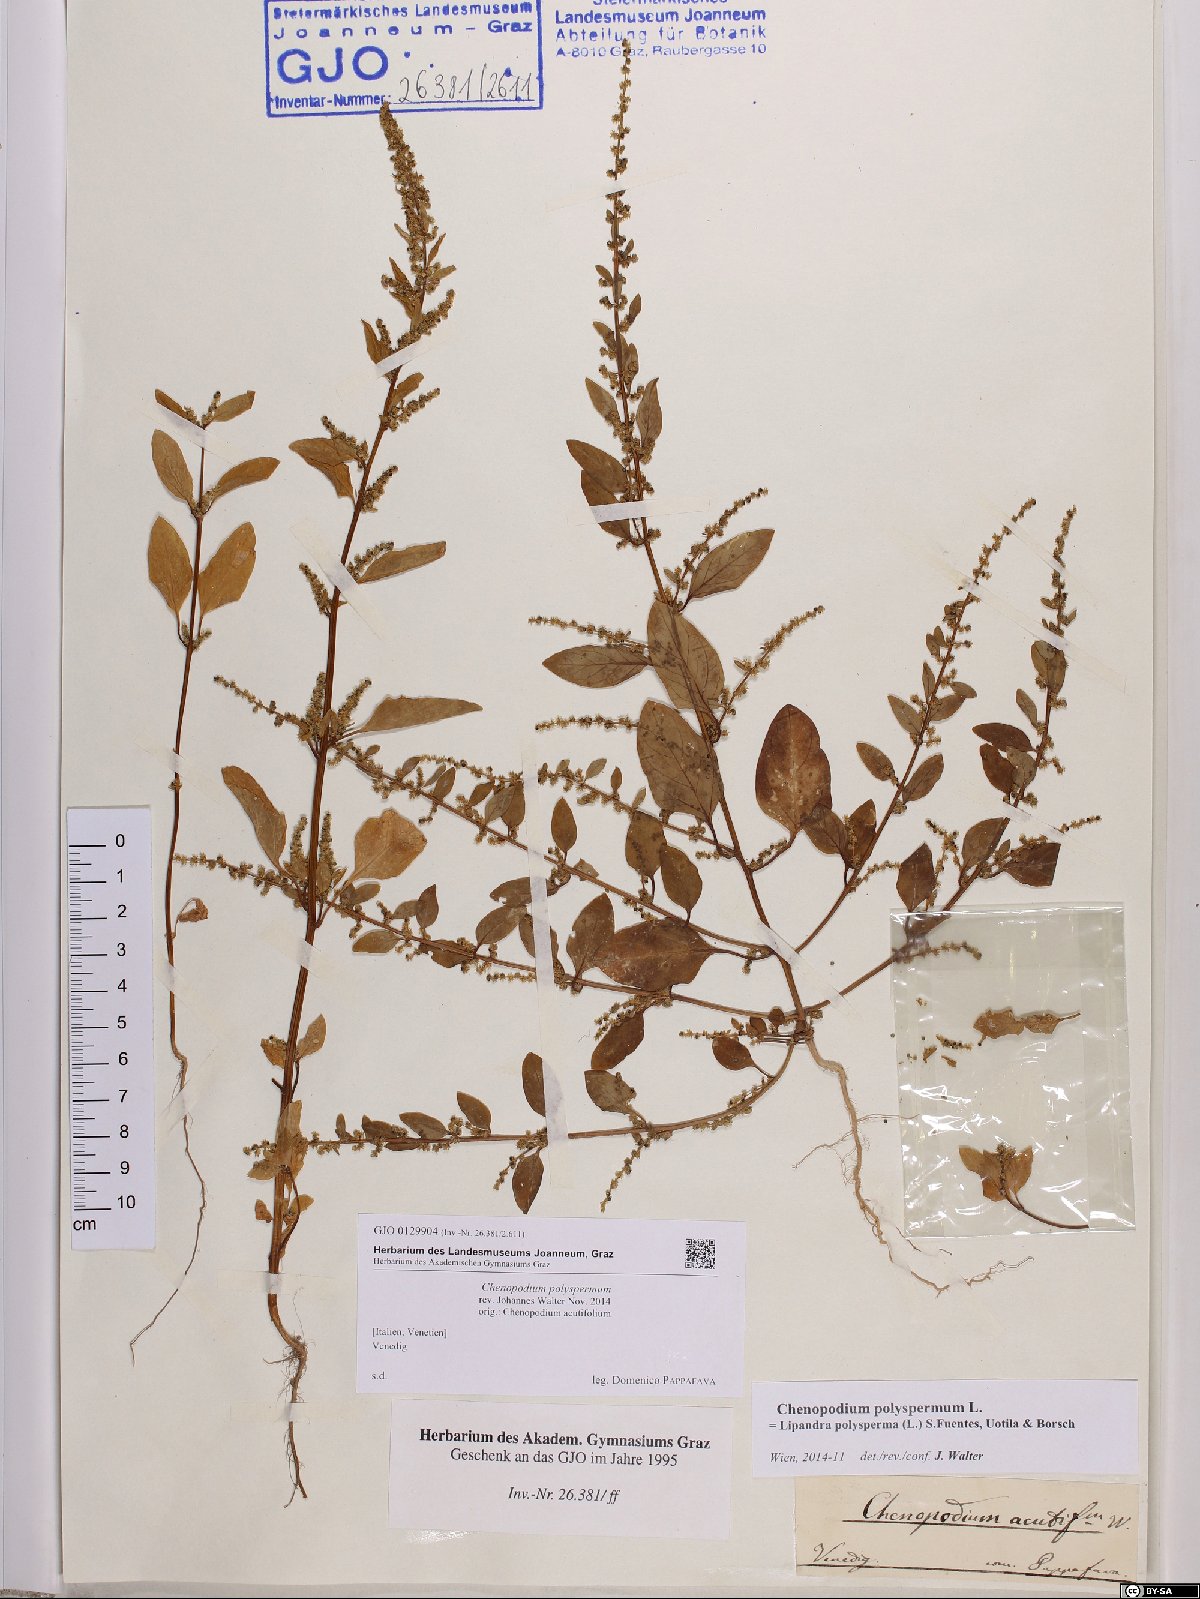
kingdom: Plantae
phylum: Tracheophyta
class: Magnoliopsida
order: Caryophyllales
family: Amaranthaceae
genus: Lipandra
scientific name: Lipandra polysperma
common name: Many-seed goosefoot
